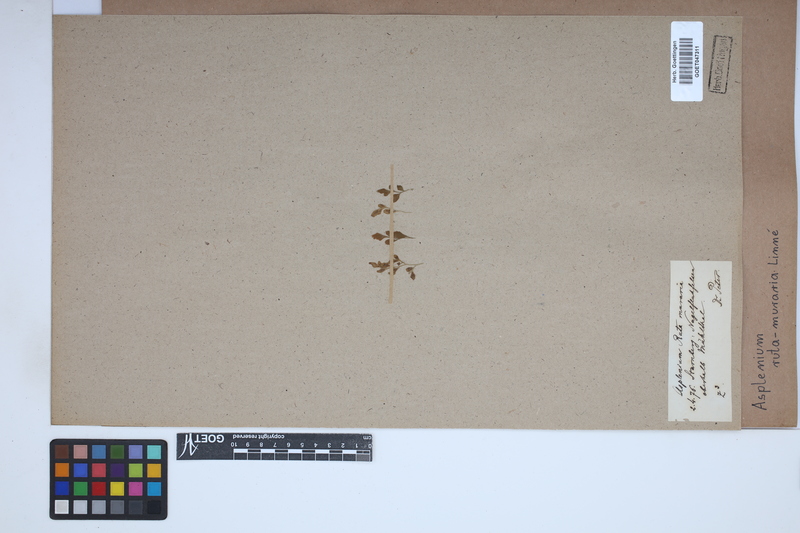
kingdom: Plantae
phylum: Tracheophyta
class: Polypodiopsida
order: Polypodiales
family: Aspleniaceae
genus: Asplenium
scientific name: Asplenium ruta-muraria
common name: Wall-rue
